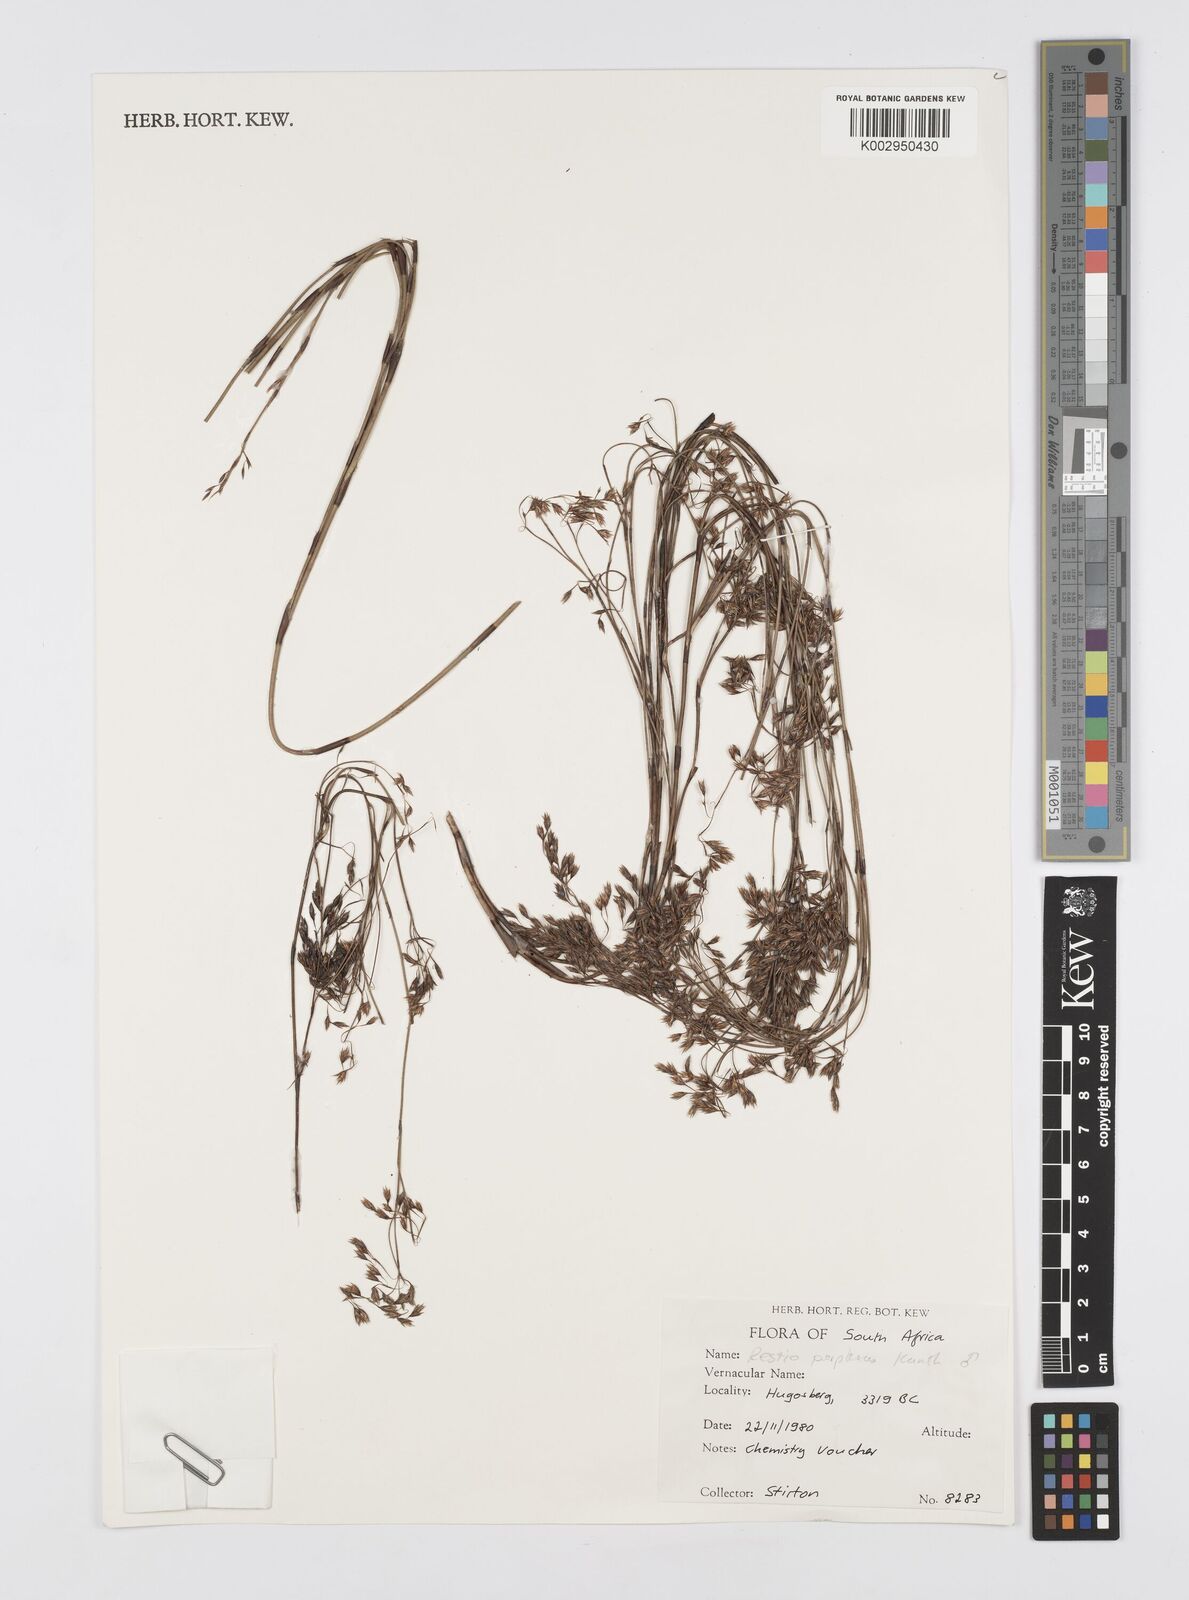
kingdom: Plantae
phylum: Tracheophyta
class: Liliopsida
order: Poales
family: Restionaceae
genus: Rhodocoma
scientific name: Rhodocoma capensis
